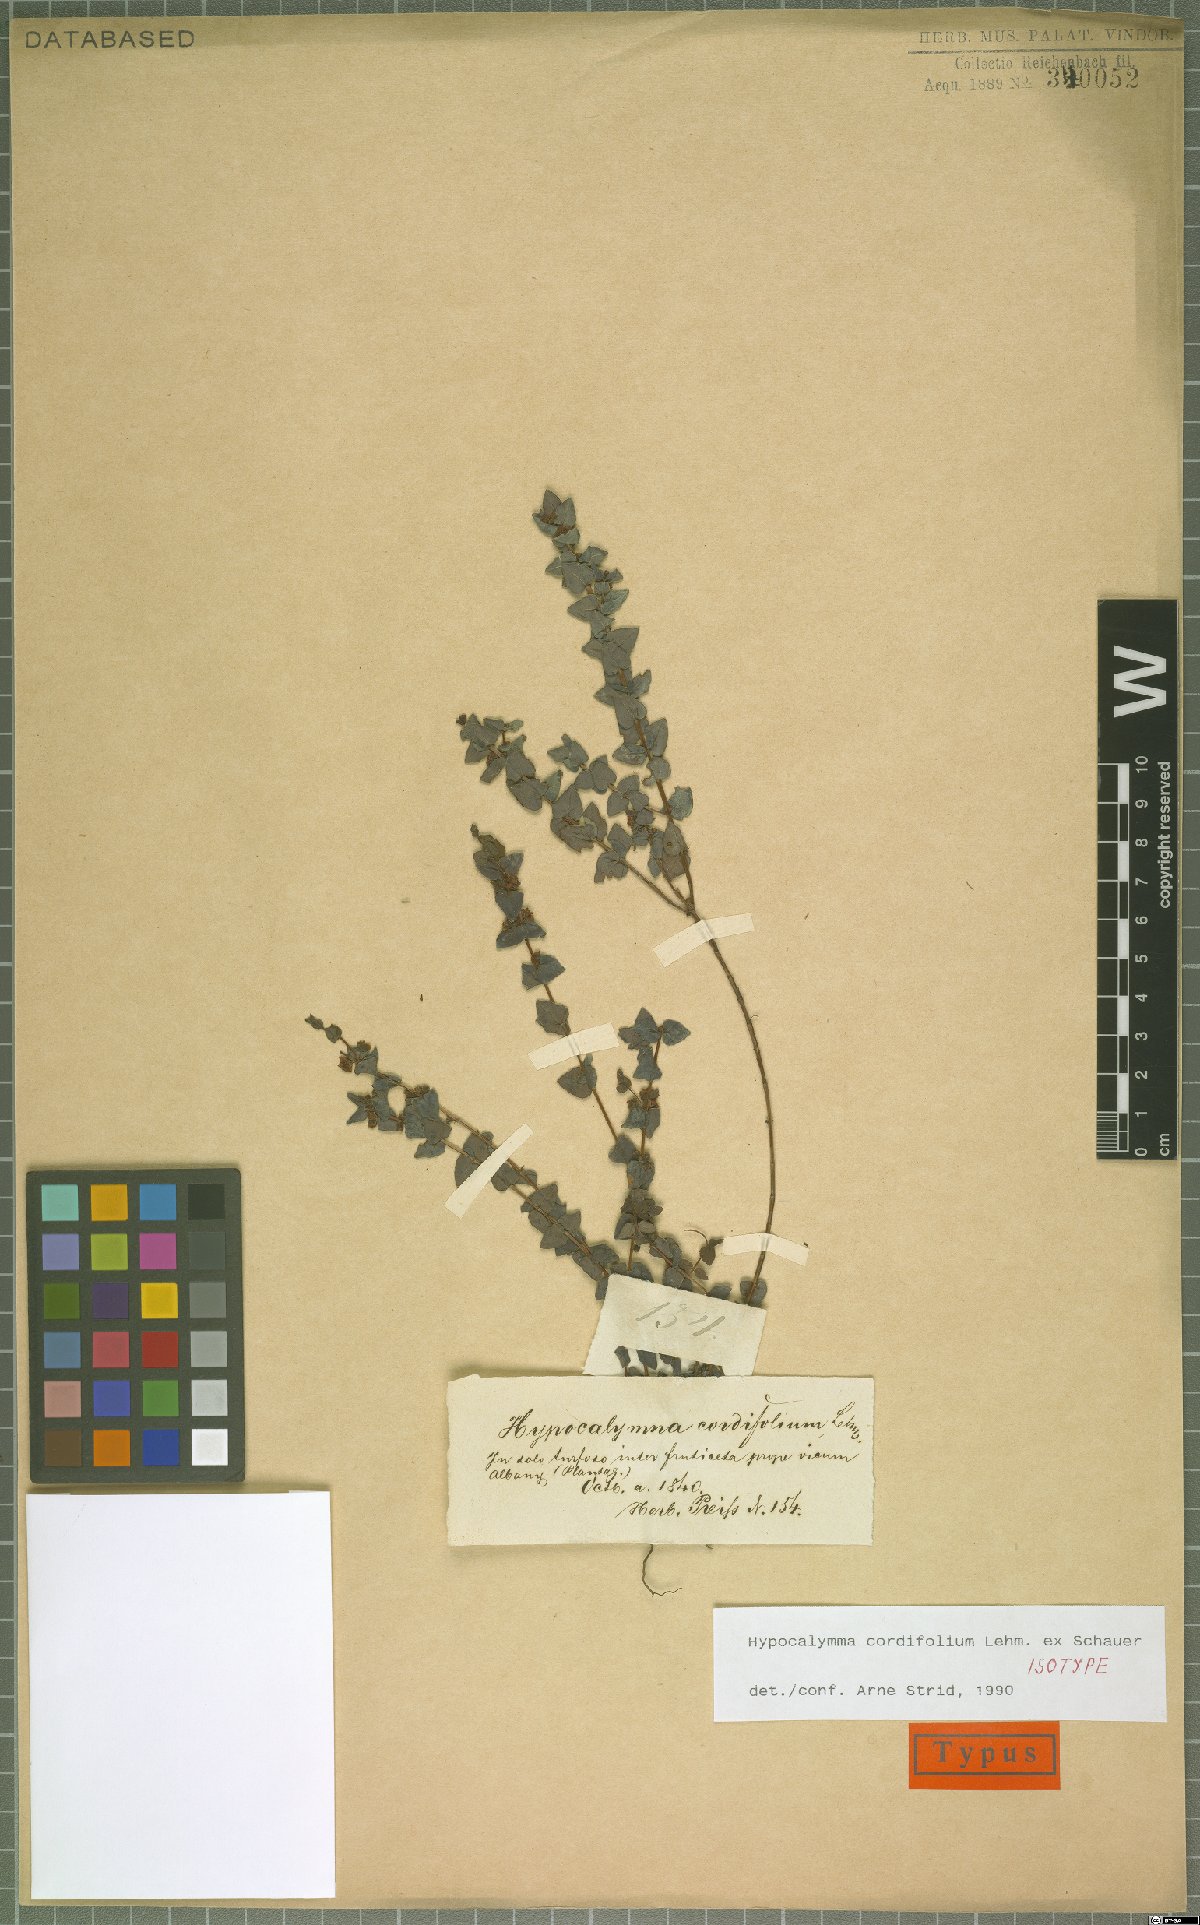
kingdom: Plantae
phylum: Tracheophyta
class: Magnoliopsida
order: Myrtales
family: Myrtaceae
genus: Hypocalymma
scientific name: Hypocalymma cordifolium
